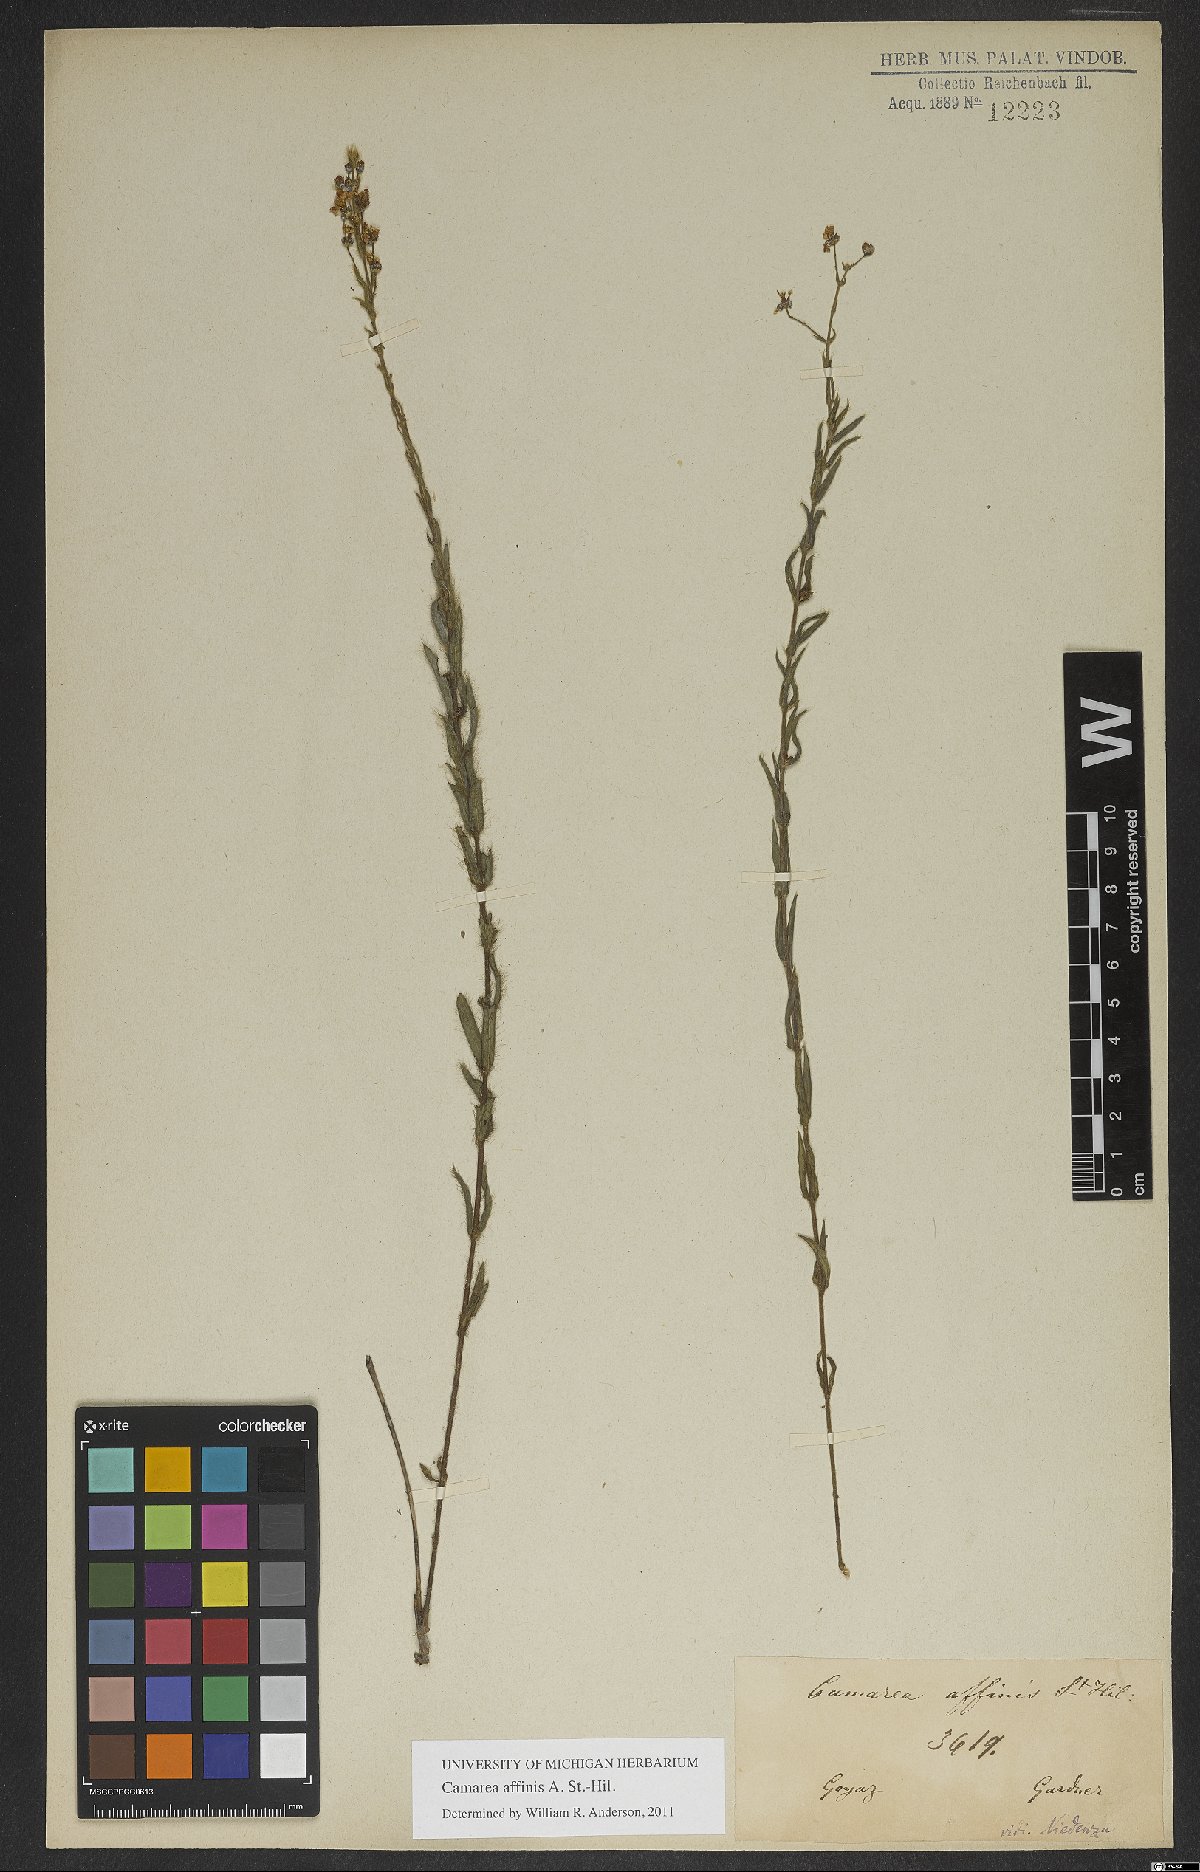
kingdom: Plantae
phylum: Tracheophyta
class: Magnoliopsida
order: Malpighiales
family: Malpighiaceae
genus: Camarea
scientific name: Camarea affinis
